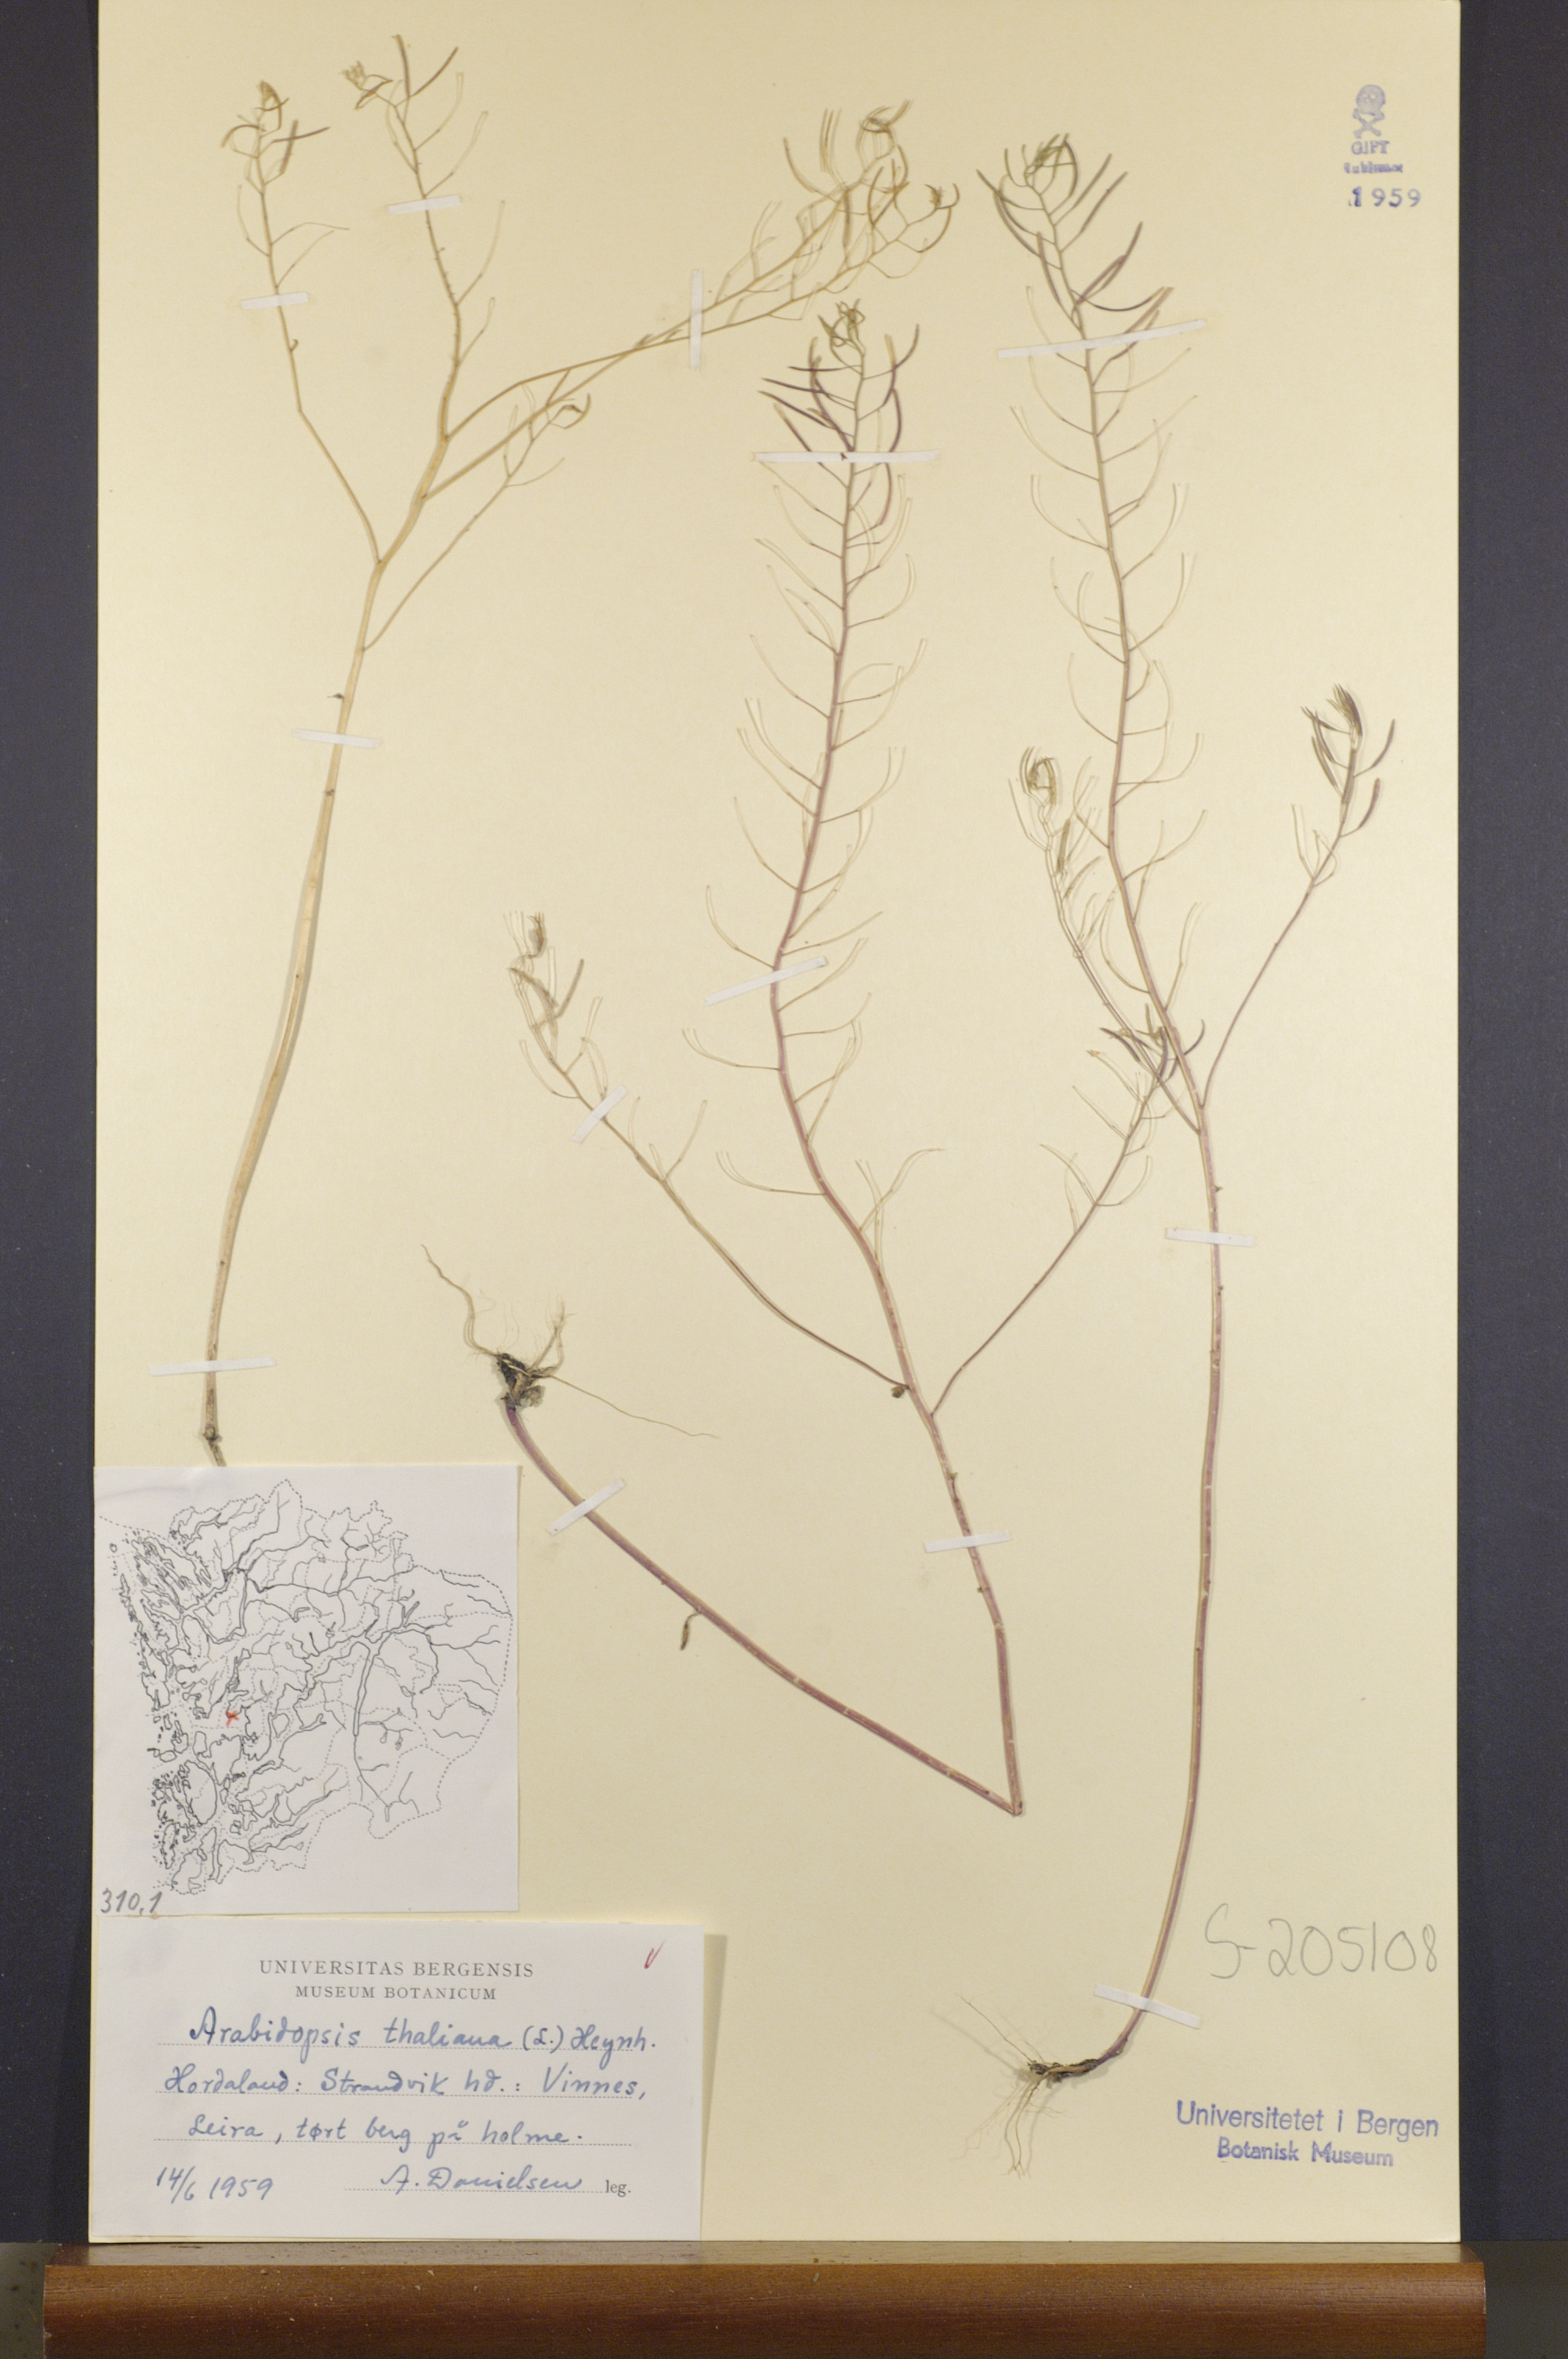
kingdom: Plantae
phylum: Tracheophyta
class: Magnoliopsida
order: Brassicales
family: Brassicaceae
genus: Arabidopsis
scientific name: Arabidopsis thaliana
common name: Thale cress
